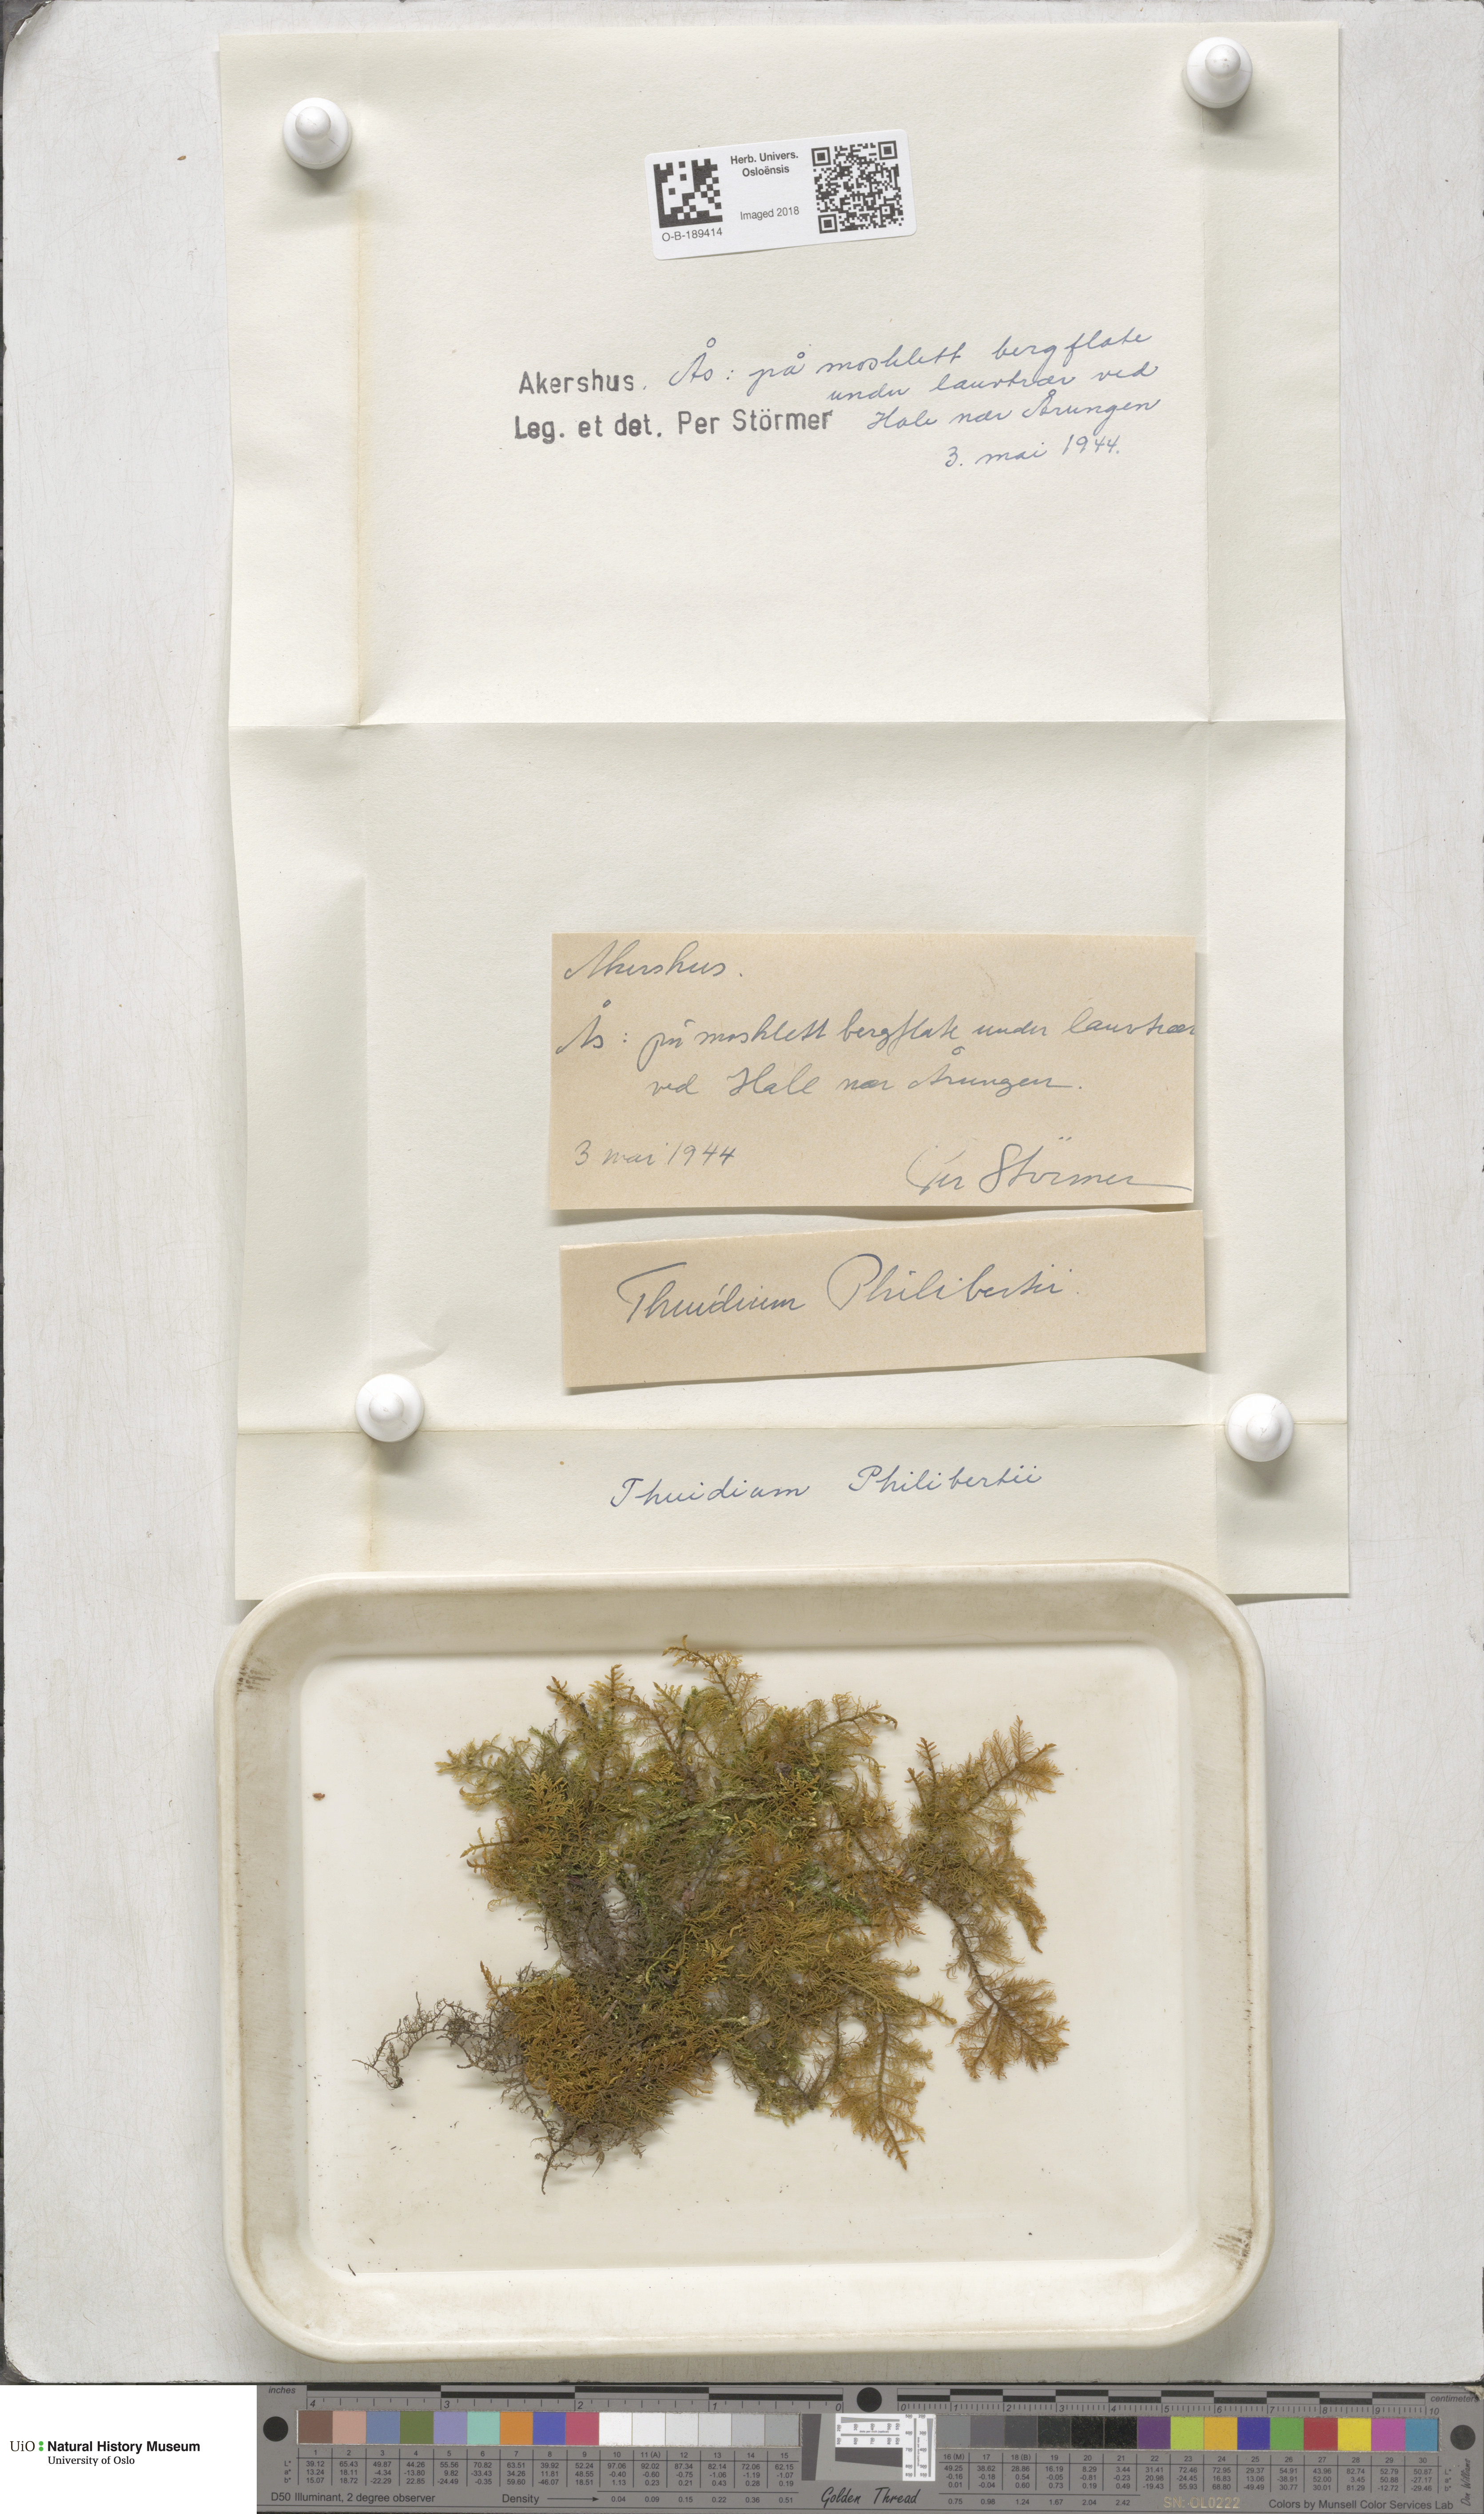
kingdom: Plantae
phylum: Bryophyta
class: Bryopsida
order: Hypnales
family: Thuidiaceae
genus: Thuidium
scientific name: Thuidium assimile
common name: Philibert's fern moss
